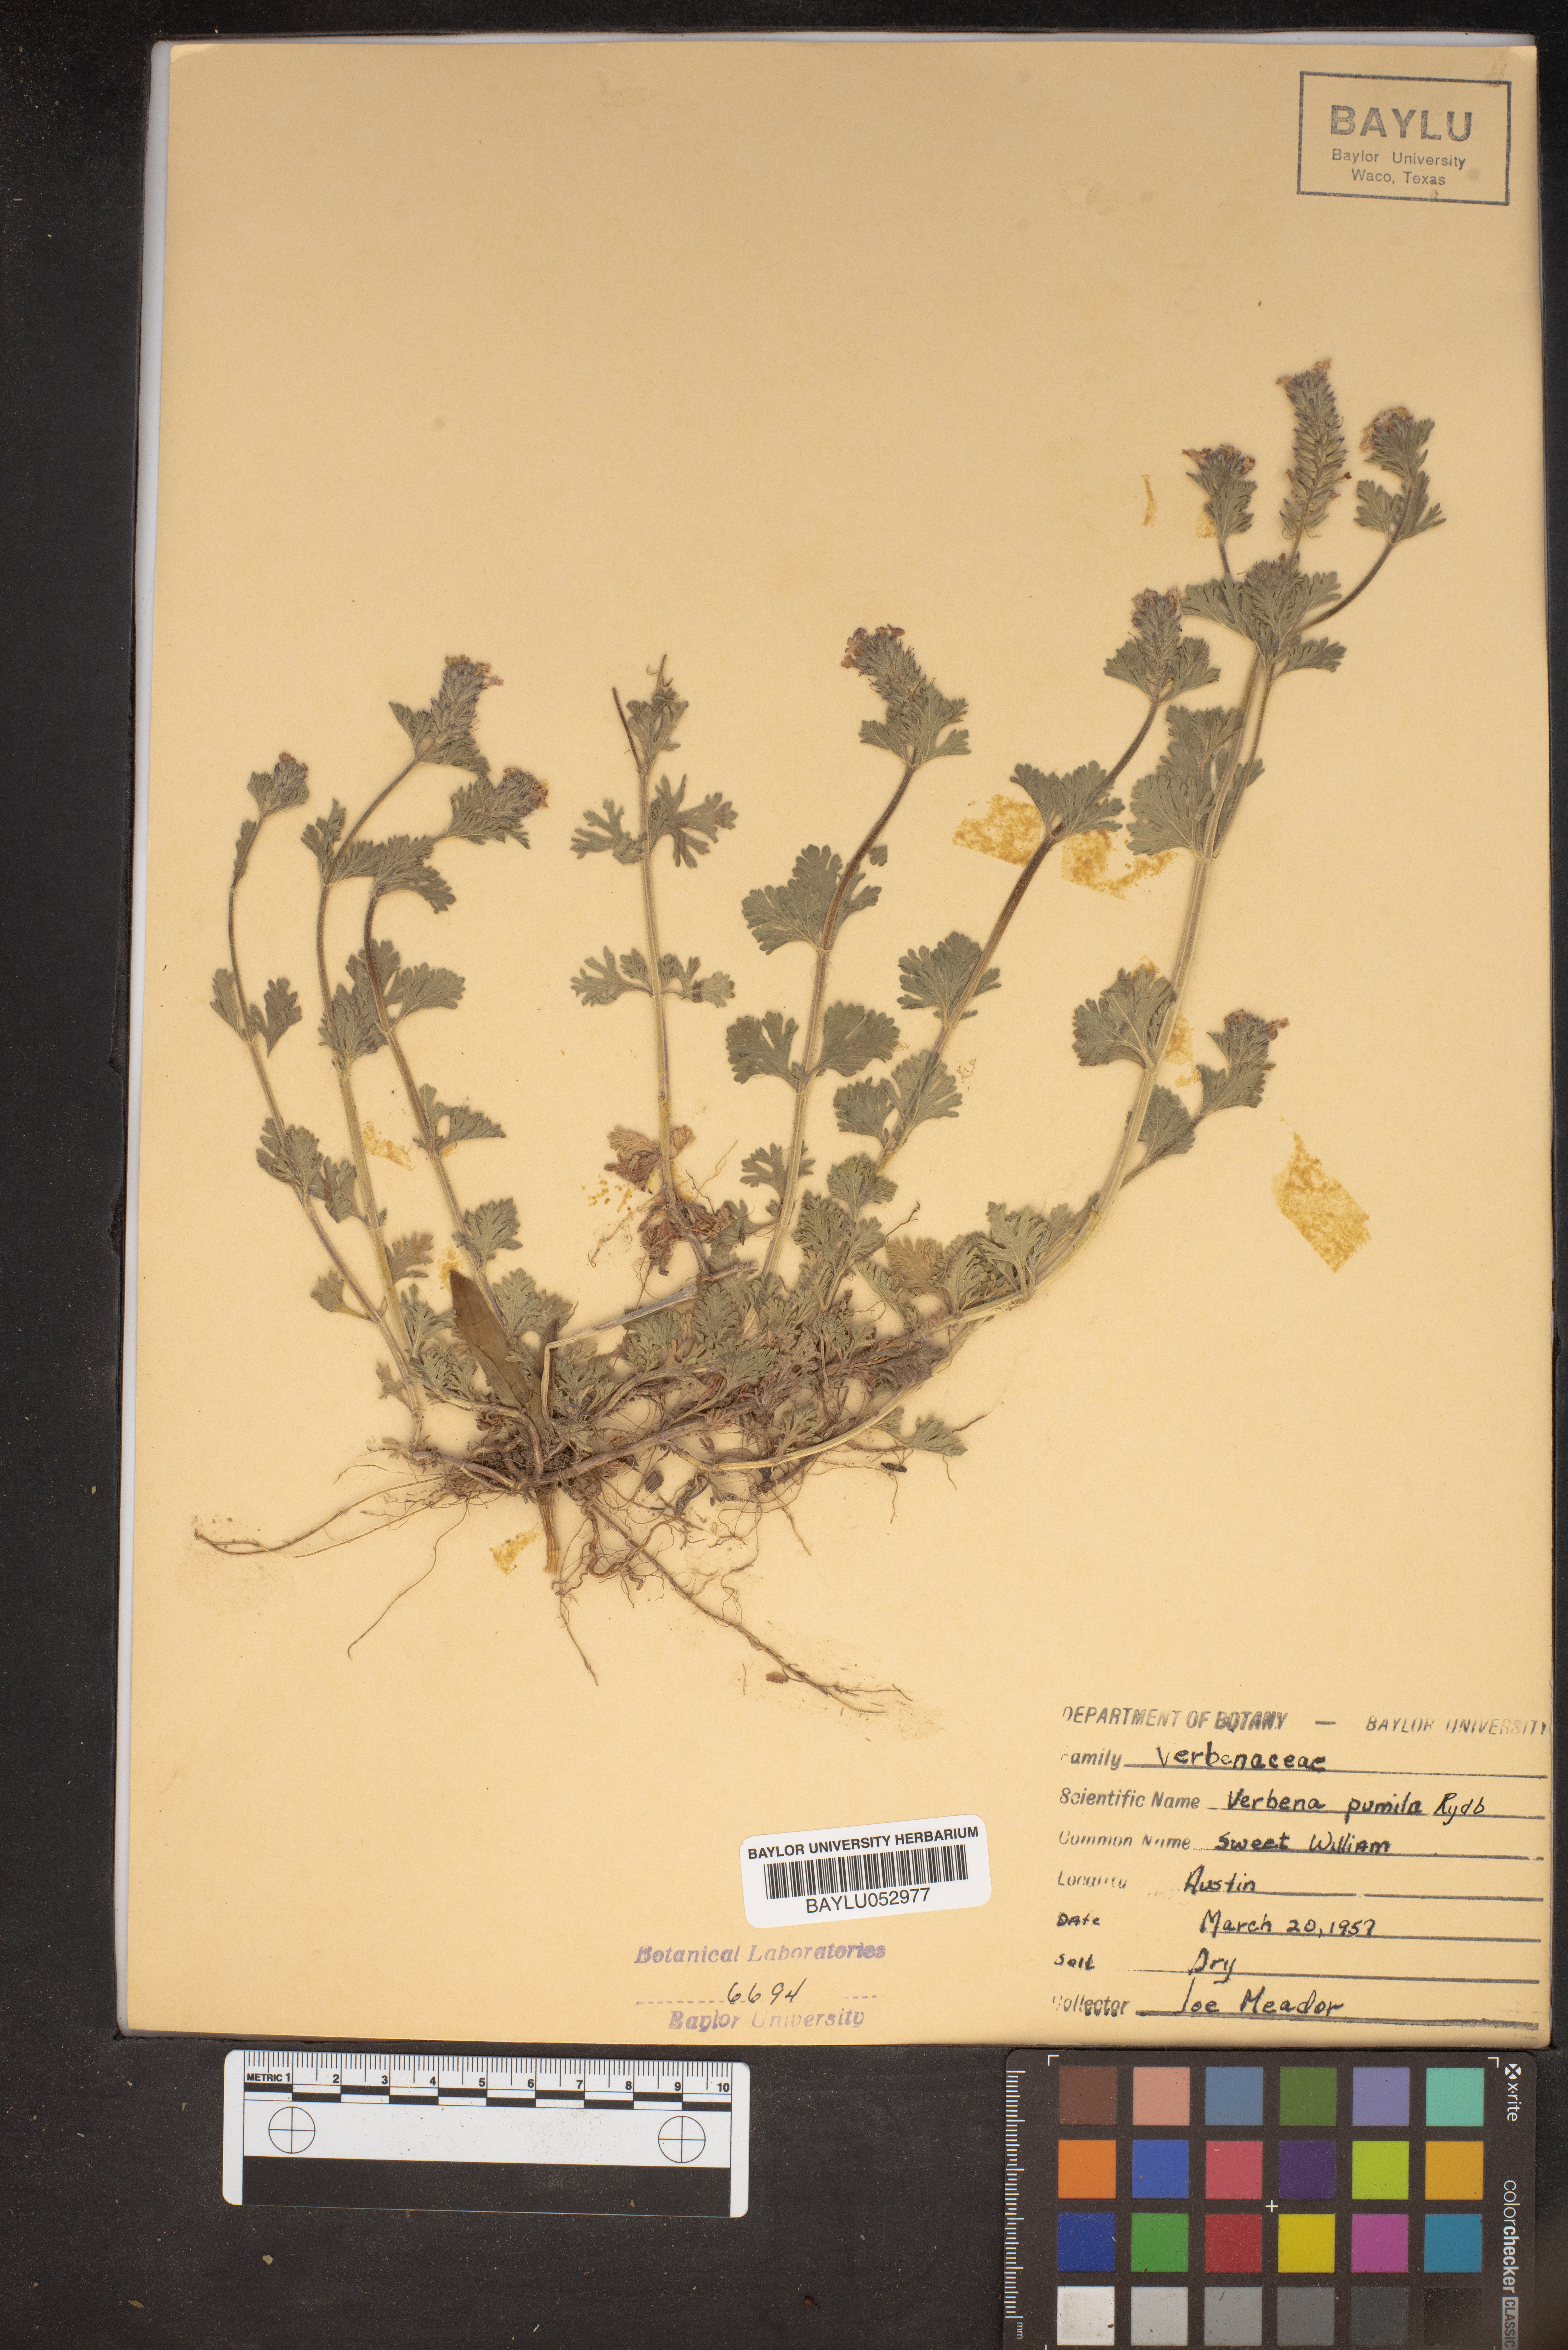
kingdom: Plantae
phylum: Tracheophyta
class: Magnoliopsida
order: Lamiales
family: Verbenaceae
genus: Verbena
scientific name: Verbena pumila
